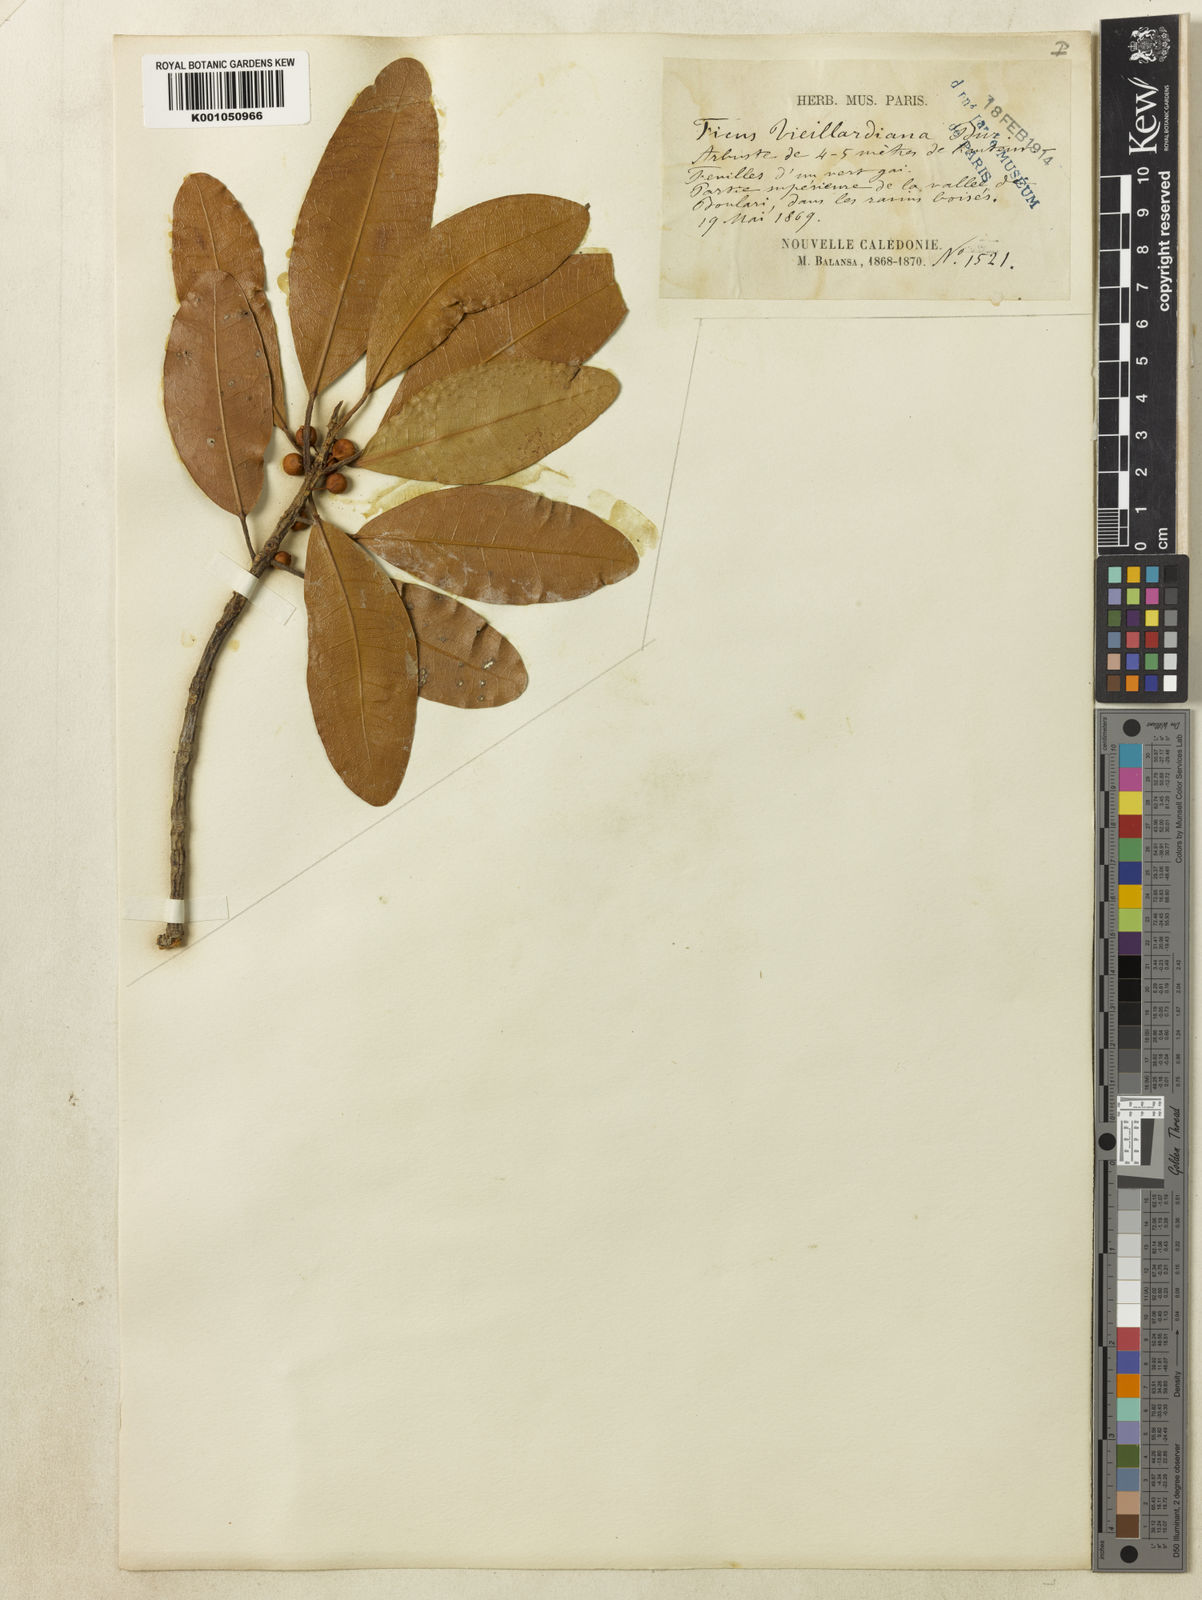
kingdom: Plantae
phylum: Tracheophyta
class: Magnoliopsida
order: Rosales
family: Moraceae
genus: Ficus
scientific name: Ficus vieillardiana
